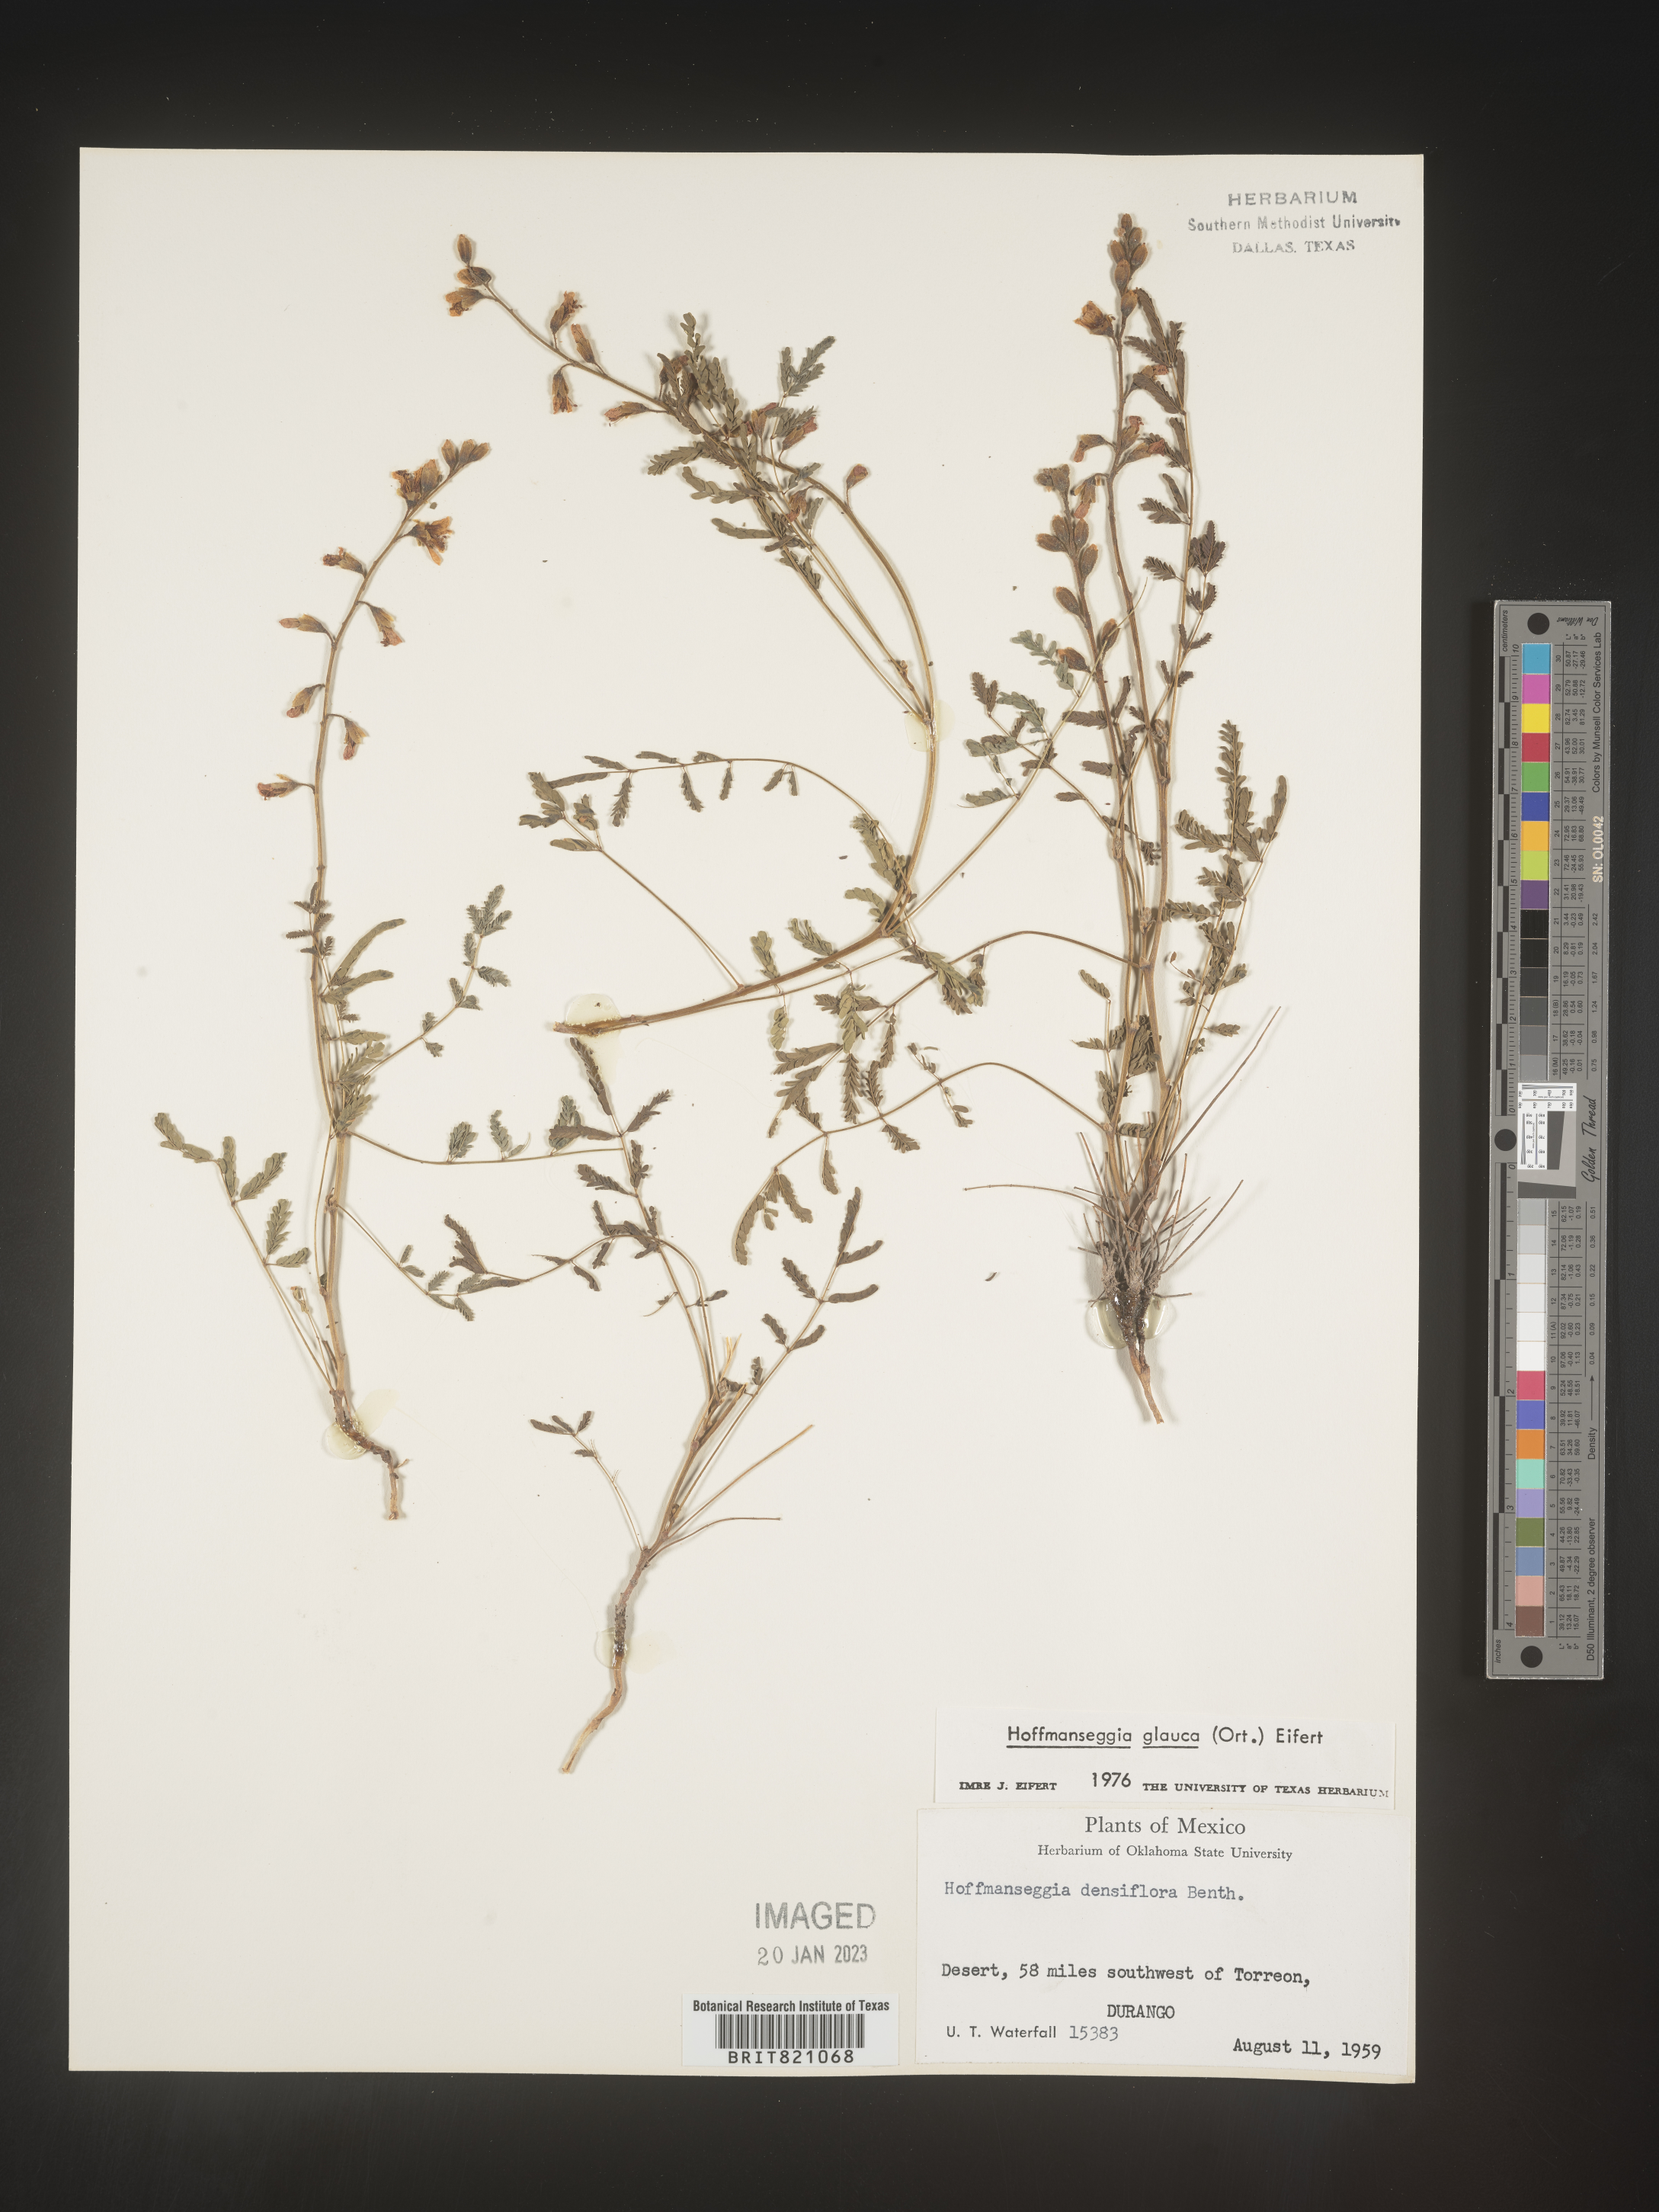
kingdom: Plantae
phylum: Tracheophyta
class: Magnoliopsida
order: Fabales
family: Fabaceae
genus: Hoffmannseggia
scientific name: Hoffmannseggia
